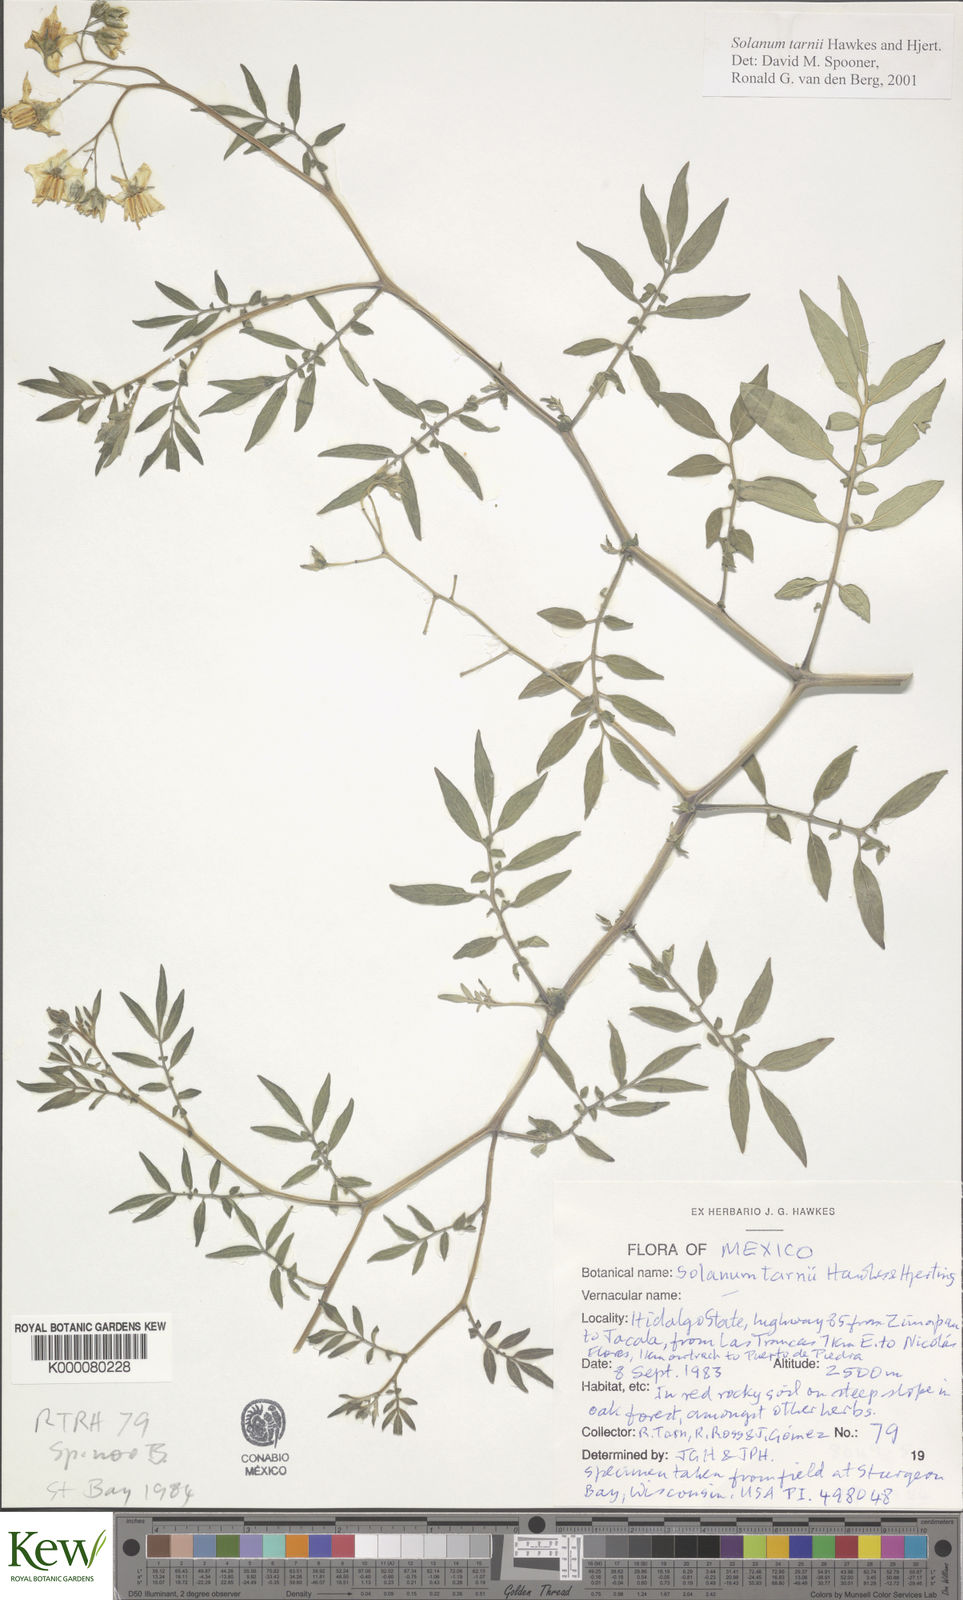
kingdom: Plantae
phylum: Tracheophyta
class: Magnoliopsida
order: Solanales
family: Solanaceae
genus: Solanum
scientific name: Solanum tarnii
